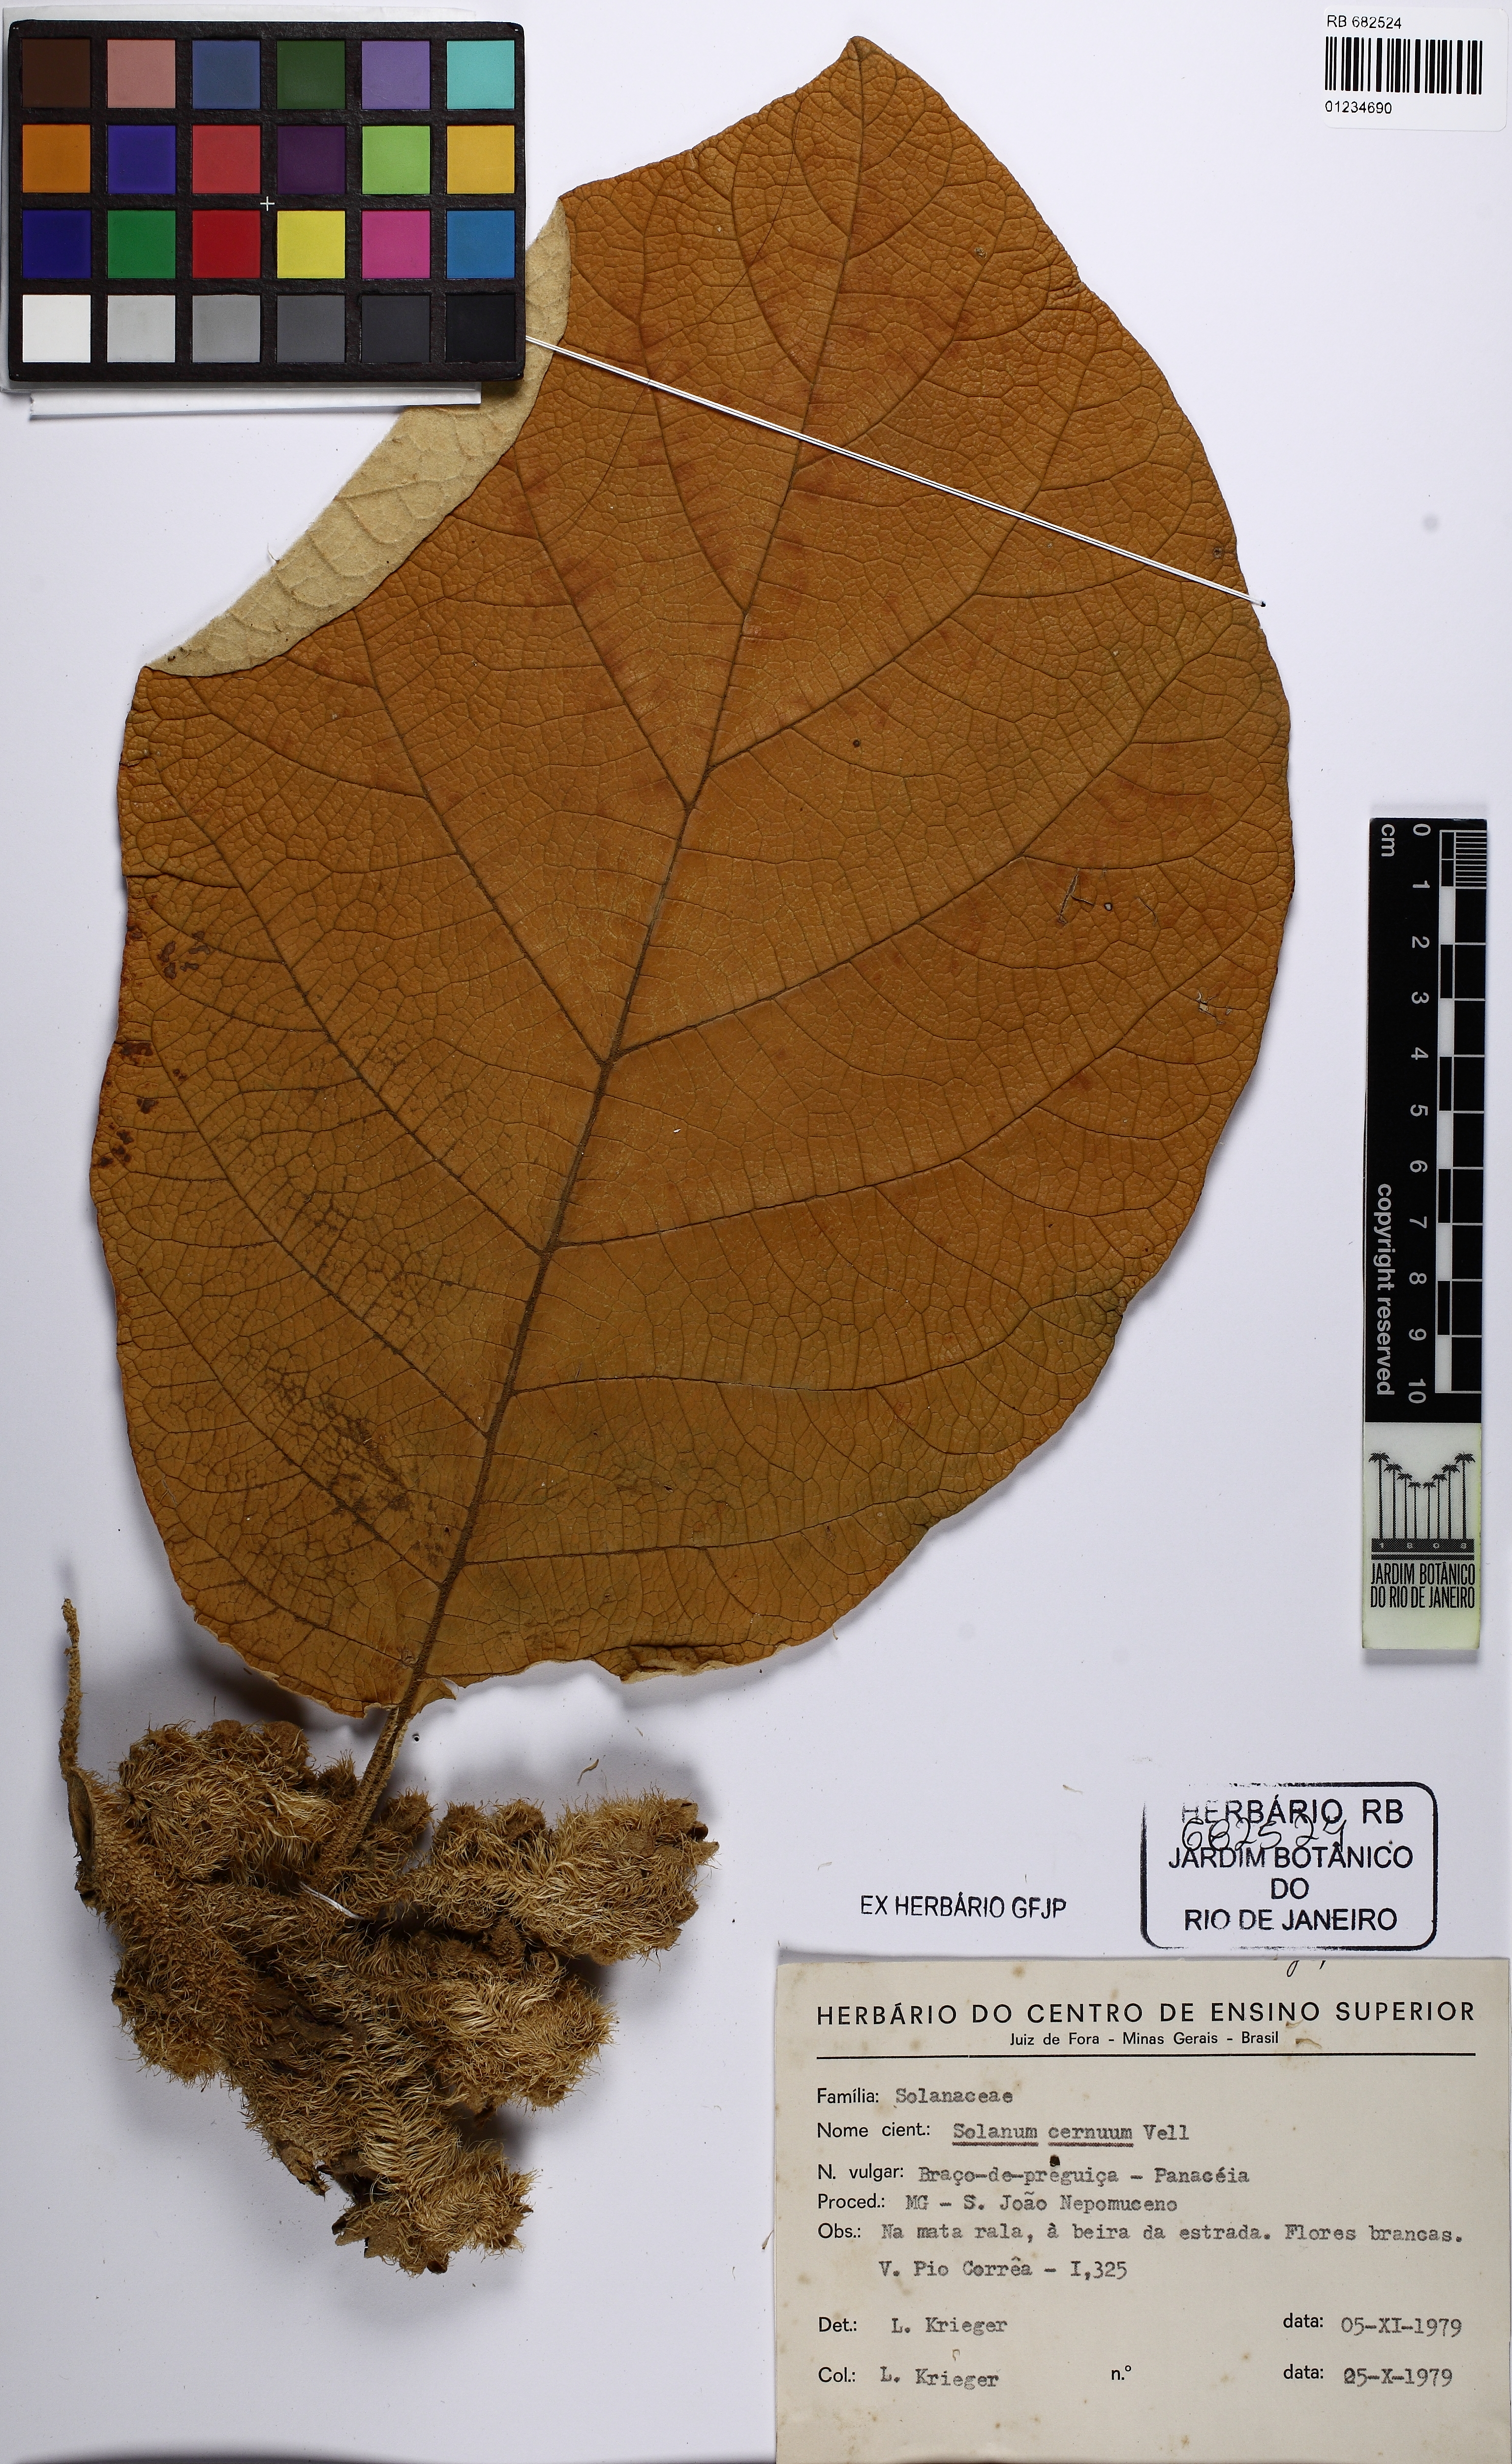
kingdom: Plantae
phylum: Tracheophyta
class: Magnoliopsida
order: Solanales
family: Solanaceae
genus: Solanum
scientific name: Solanum cernuum
